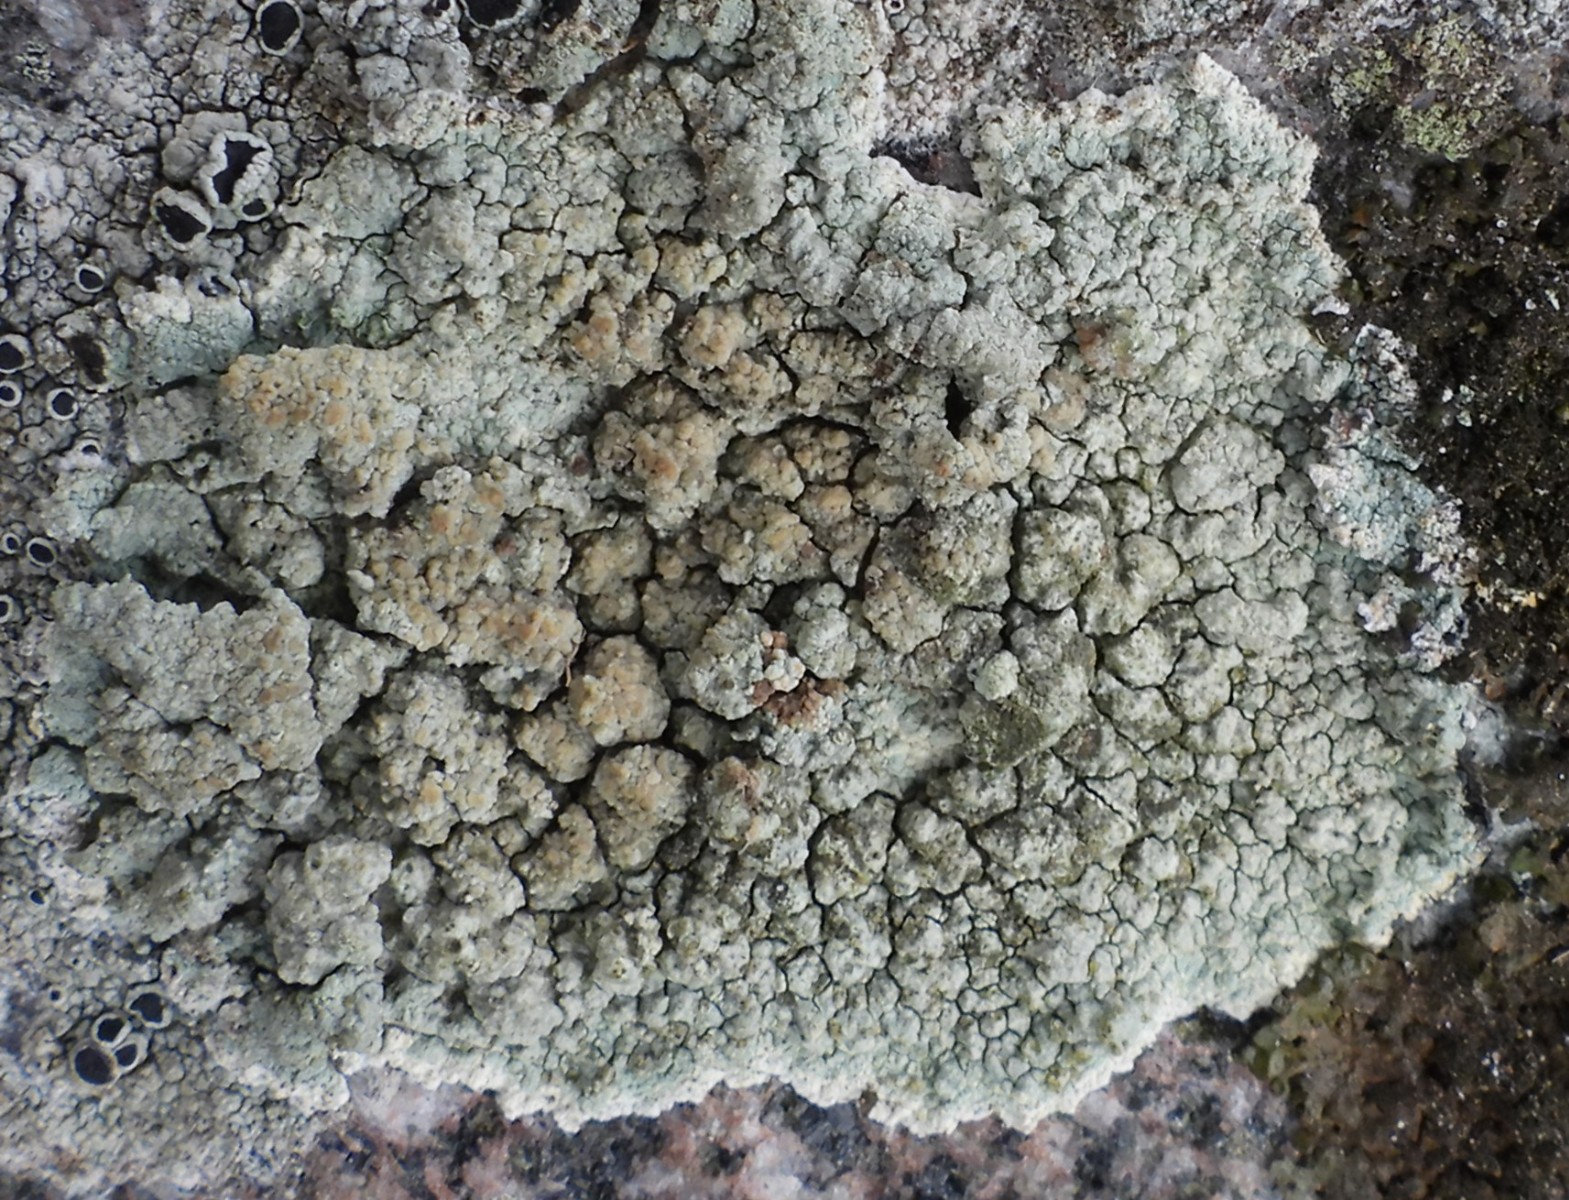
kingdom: Fungi
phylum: Ascomycota
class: Lecanoromycetes
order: Lecanorales
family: Lecanoraceae
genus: Glaucomaria
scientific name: Glaucomaria sulphurea
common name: svovlgul kantskivelav
